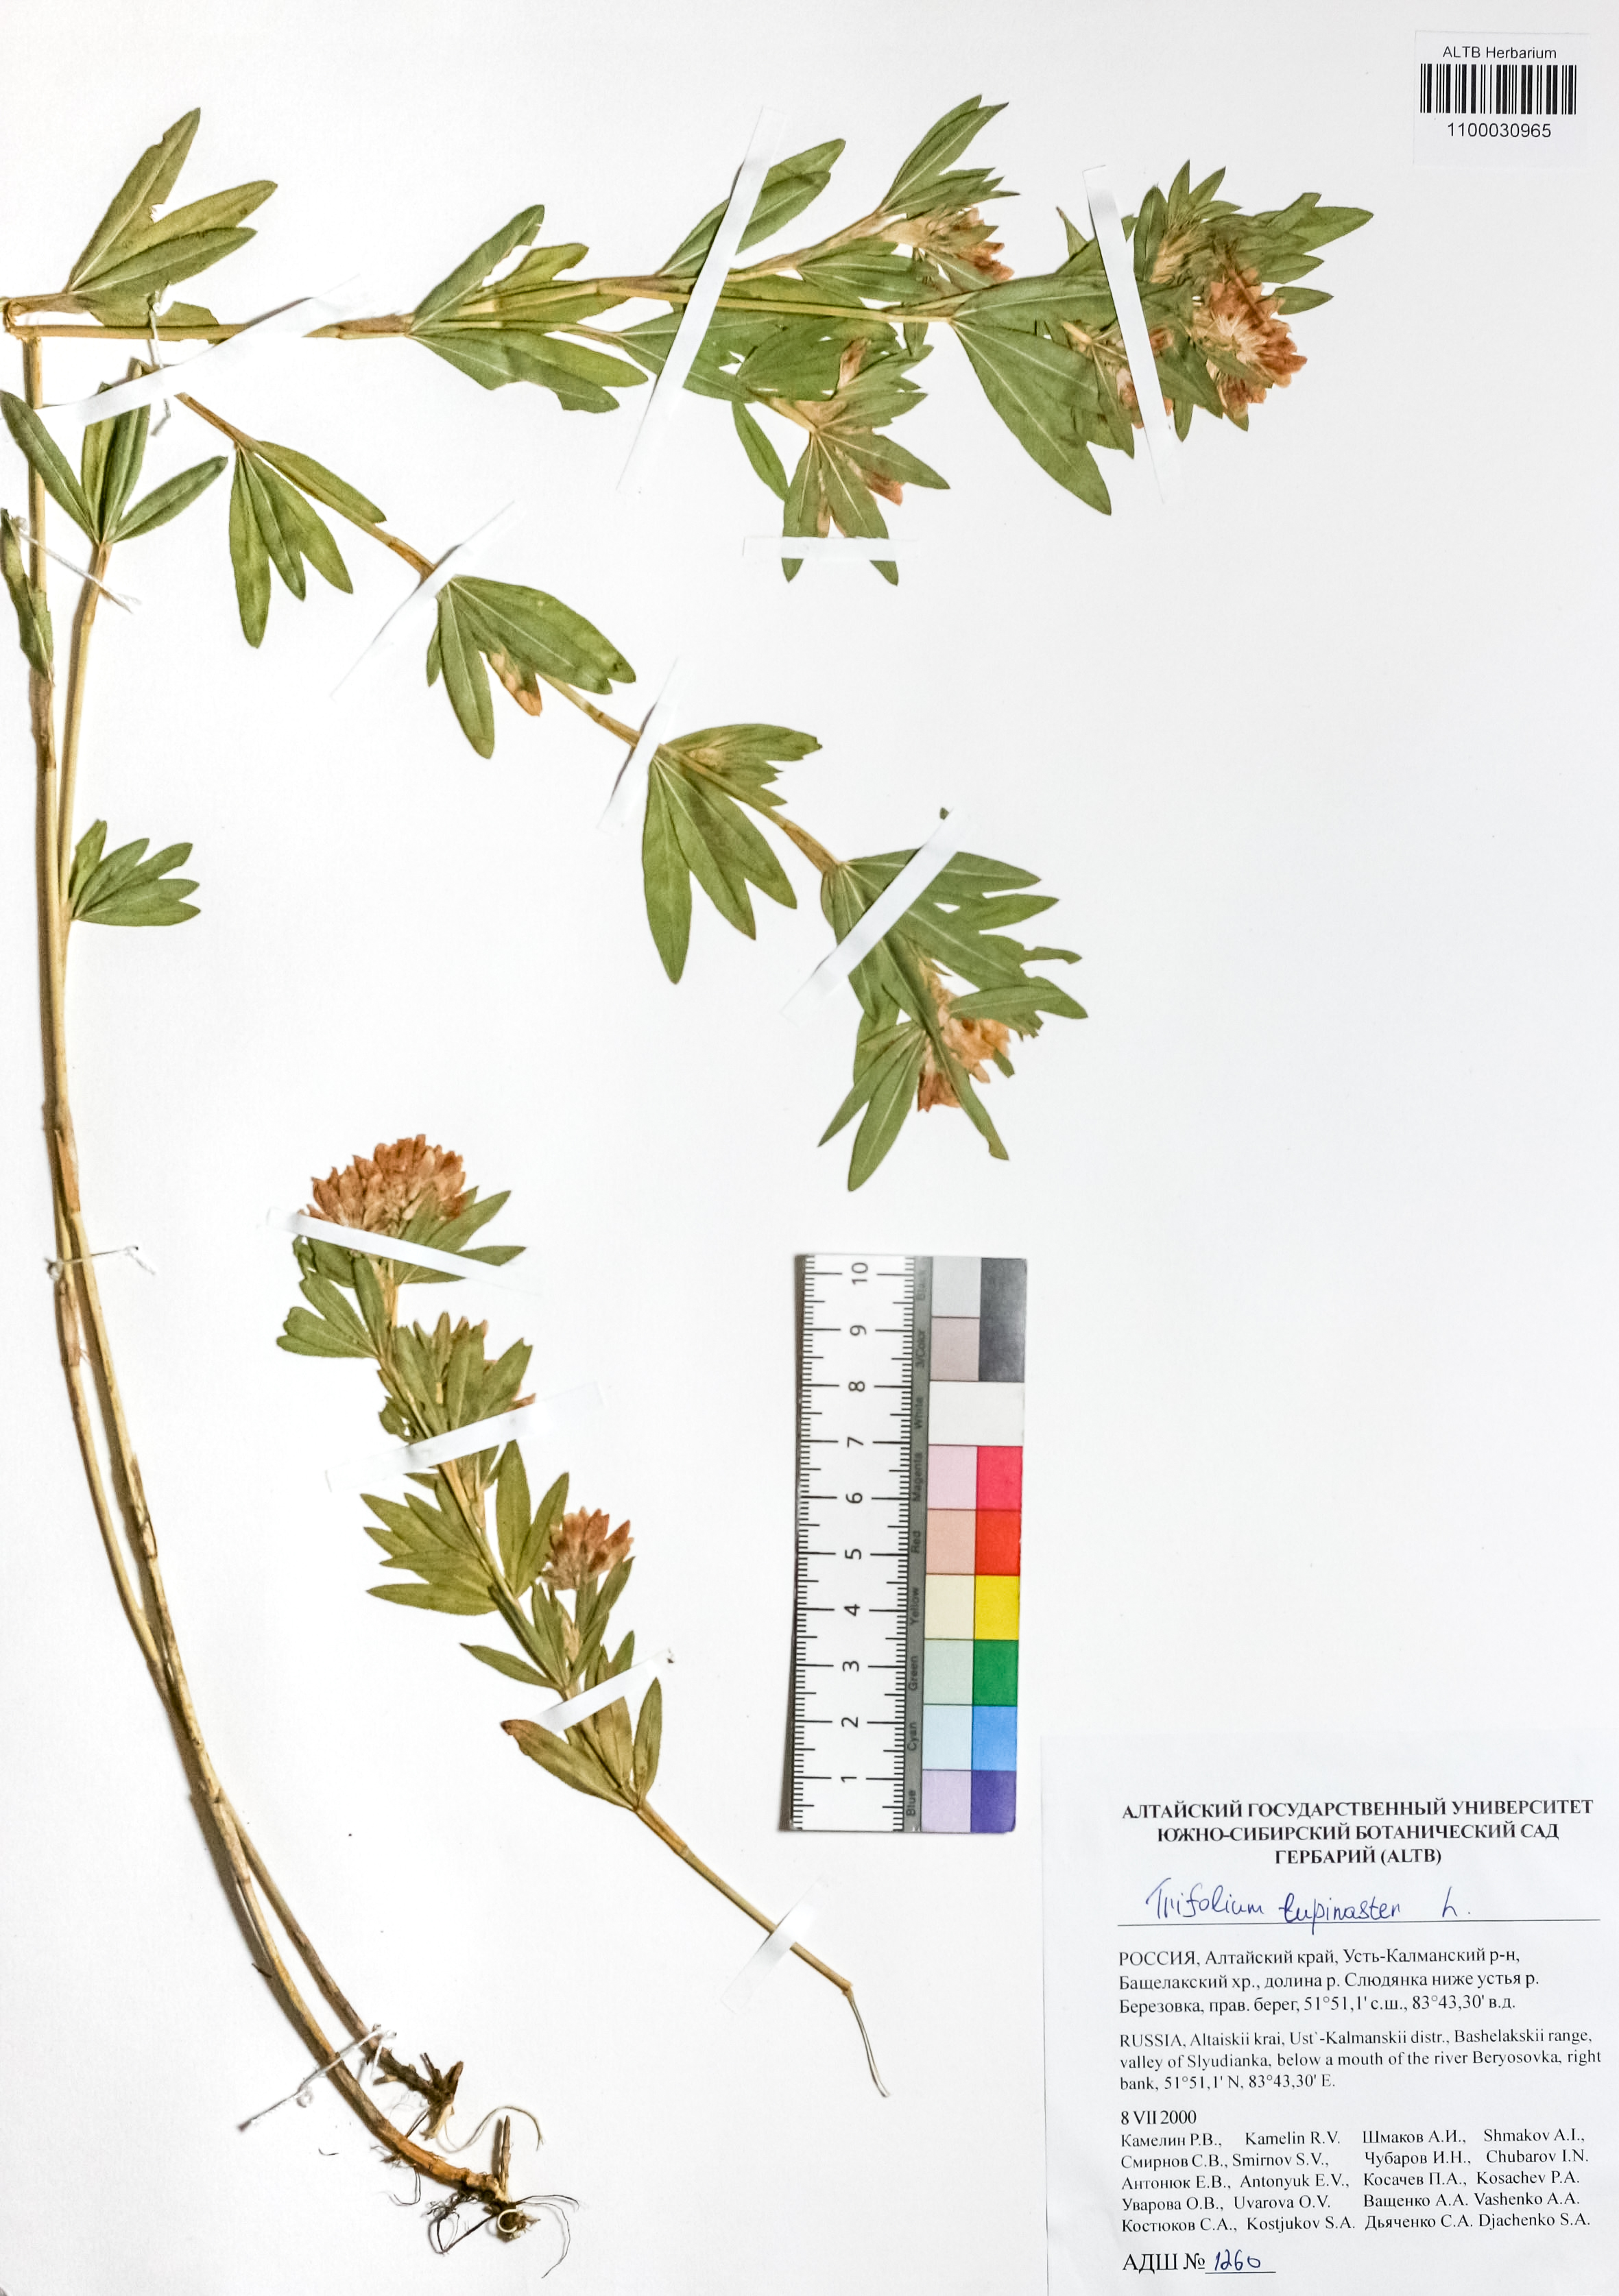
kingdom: Plantae
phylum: Tracheophyta
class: Magnoliopsida
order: Fabales
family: Fabaceae
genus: Trifolium
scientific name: Trifolium lupinaster
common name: Lupine clover
